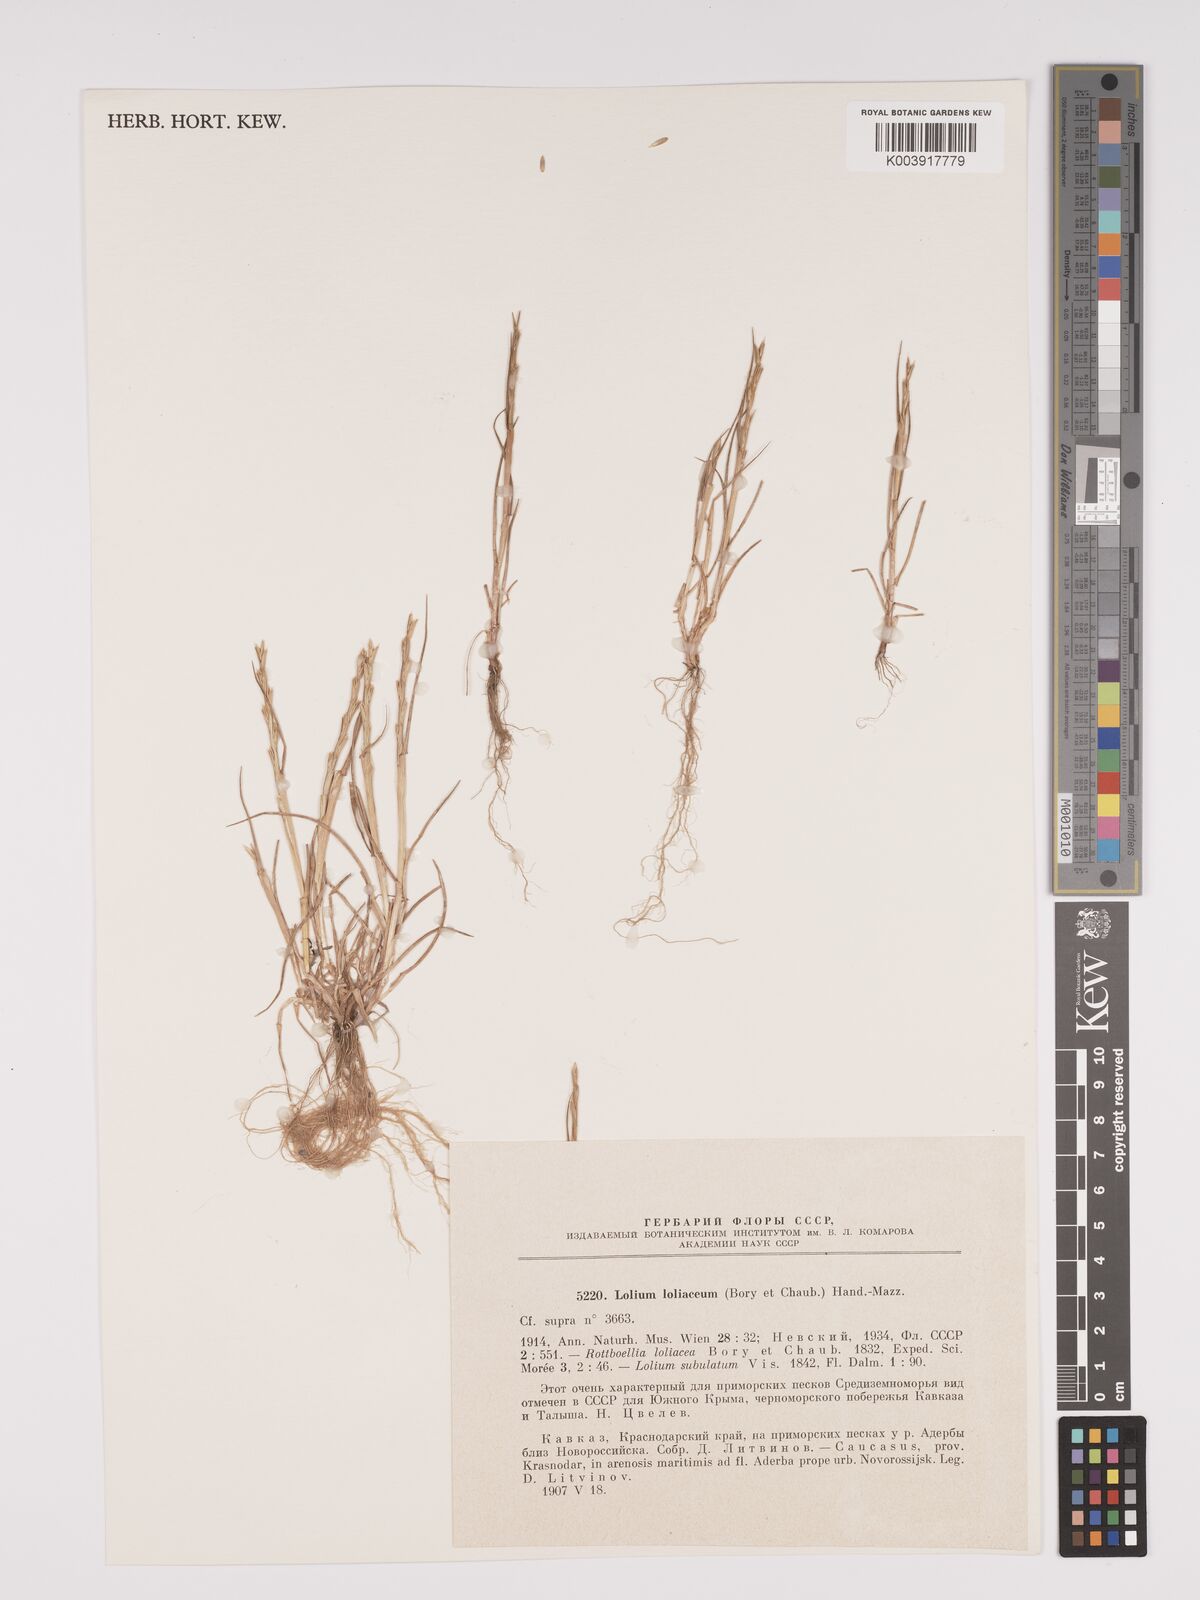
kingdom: Plantae
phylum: Tracheophyta
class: Liliopsida
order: Poales
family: Poaceae
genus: Lolium
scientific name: Lolium rigidum
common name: Wimmera ryegrass
